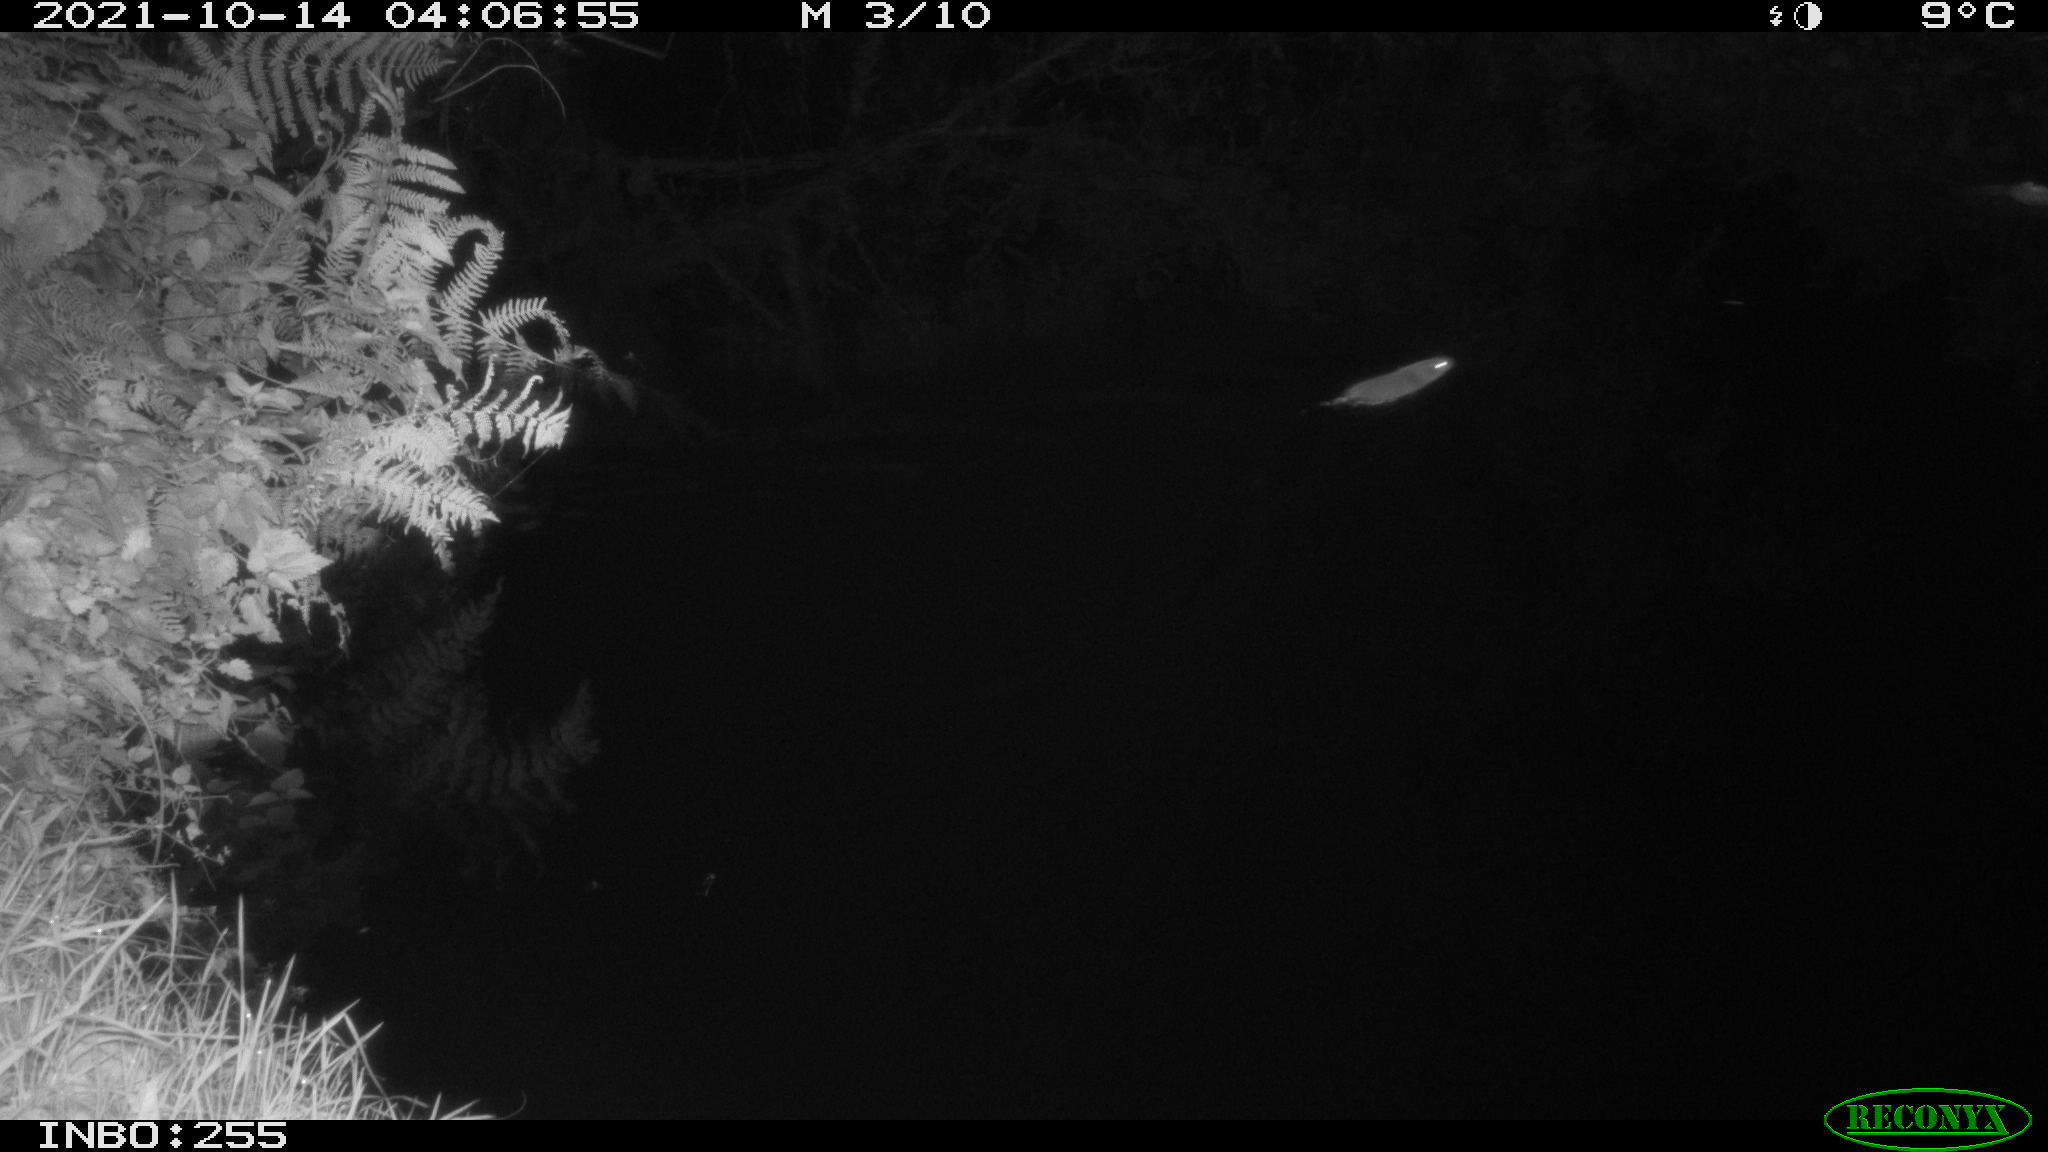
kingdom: Animalia
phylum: Chordata
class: Mammalia
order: Rodentia
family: Muridae
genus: Rattus
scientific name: Rattus norvegicus
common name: Brown rat
